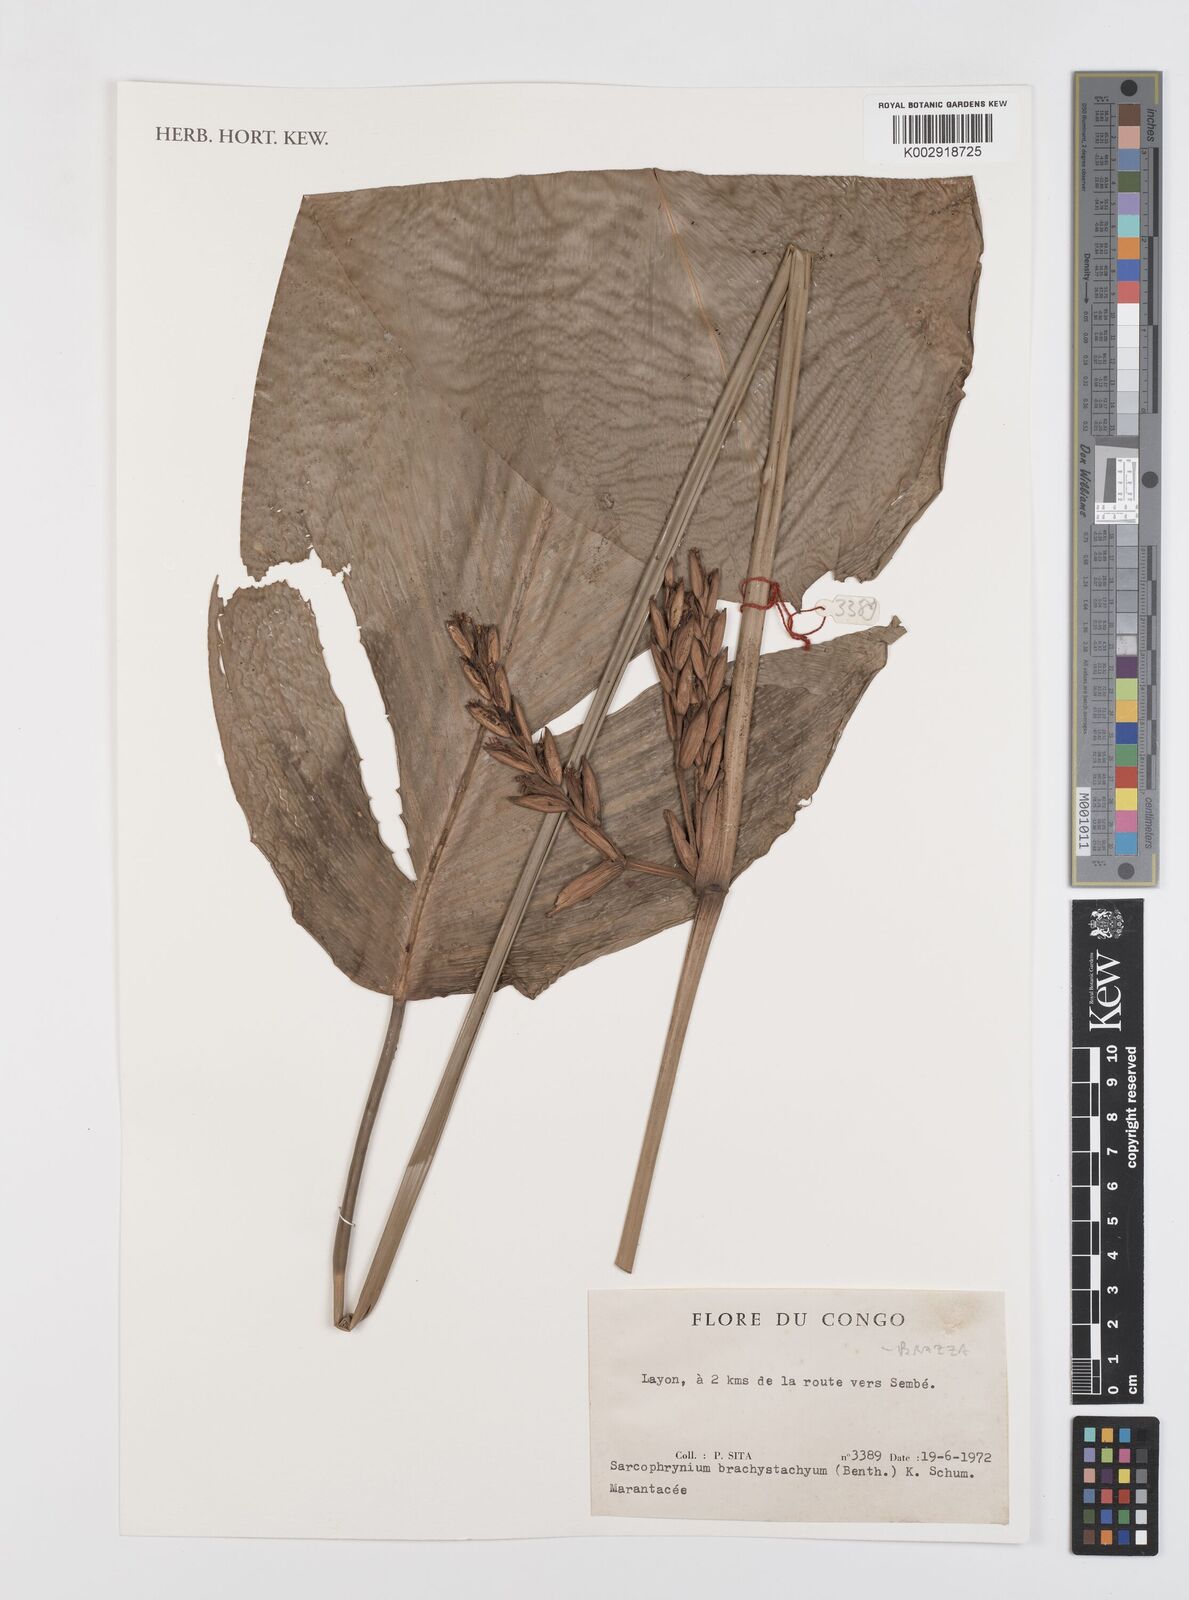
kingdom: Plantae
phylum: Tracheophyta
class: Liliopsida
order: Zingiberales
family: Marantaceae
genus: Sarcophrynium
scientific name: Sarcophrynium brachystachyum
